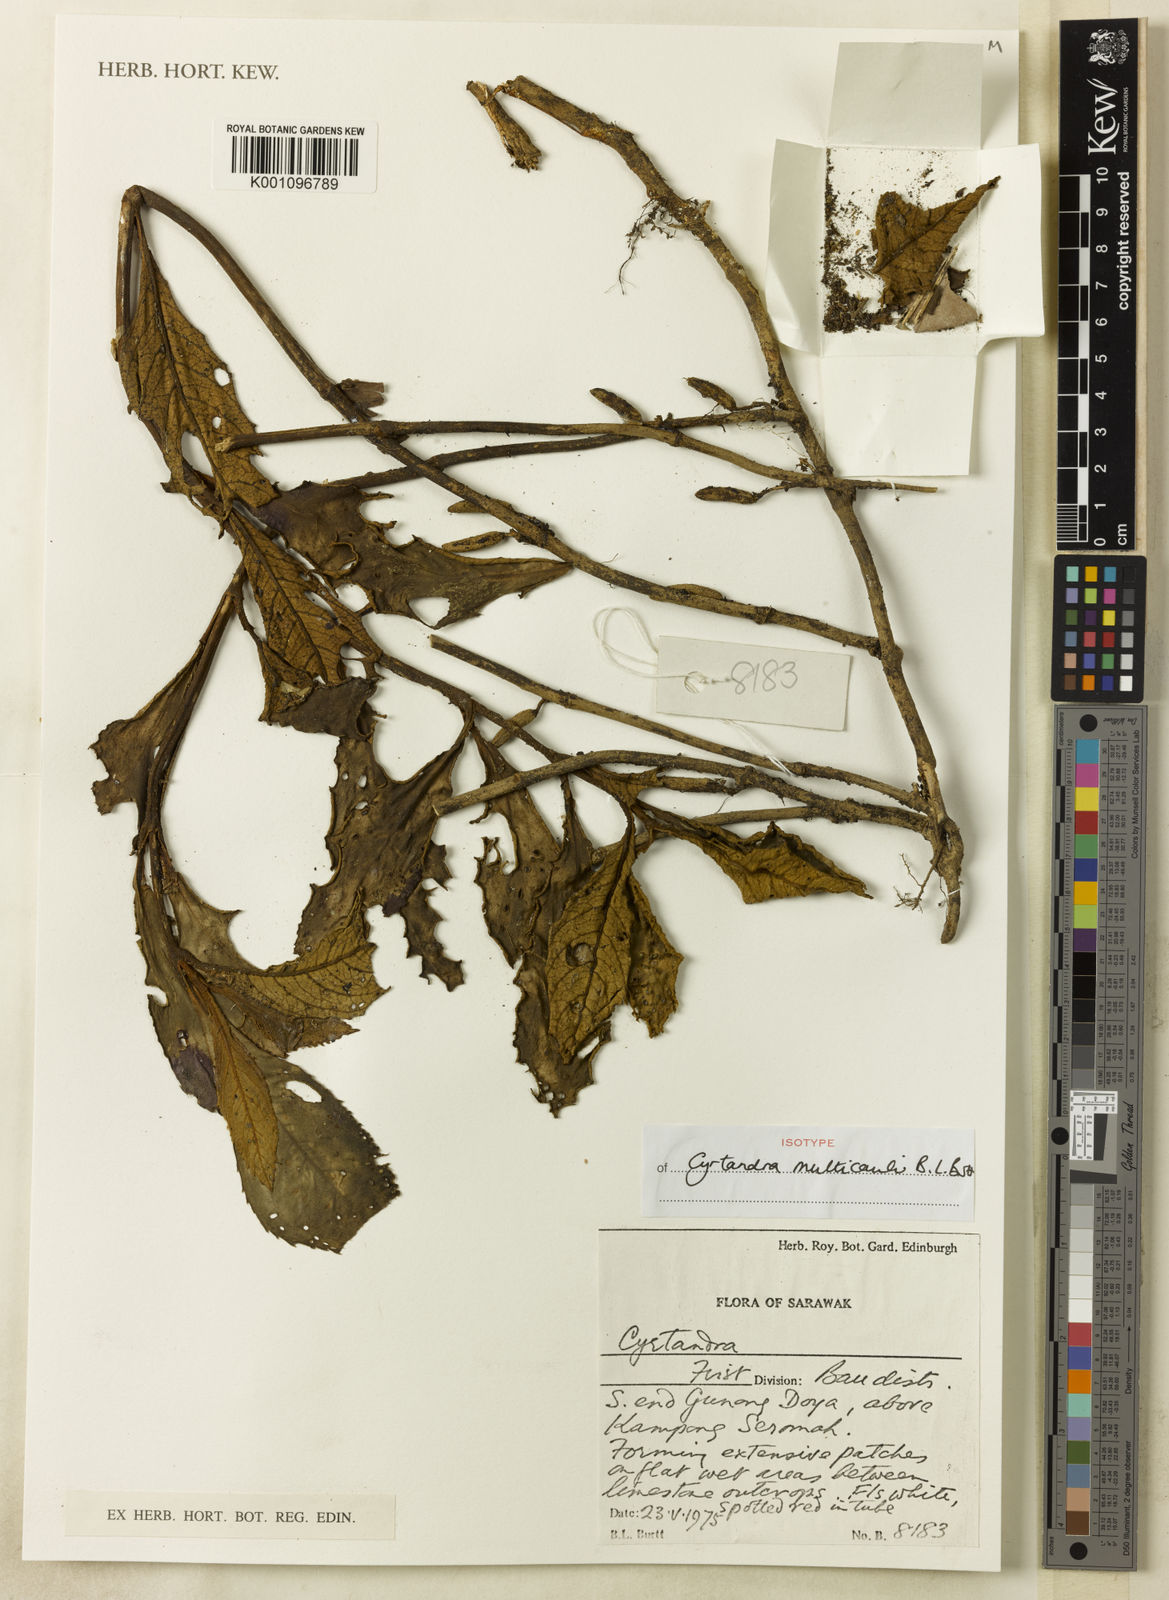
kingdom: Plantae
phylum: Tracheophyta
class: Magnoliopsida
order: Lamiales
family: Gesneriaceae
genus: Cyrtandra
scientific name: Cyrtandra multicaulis
